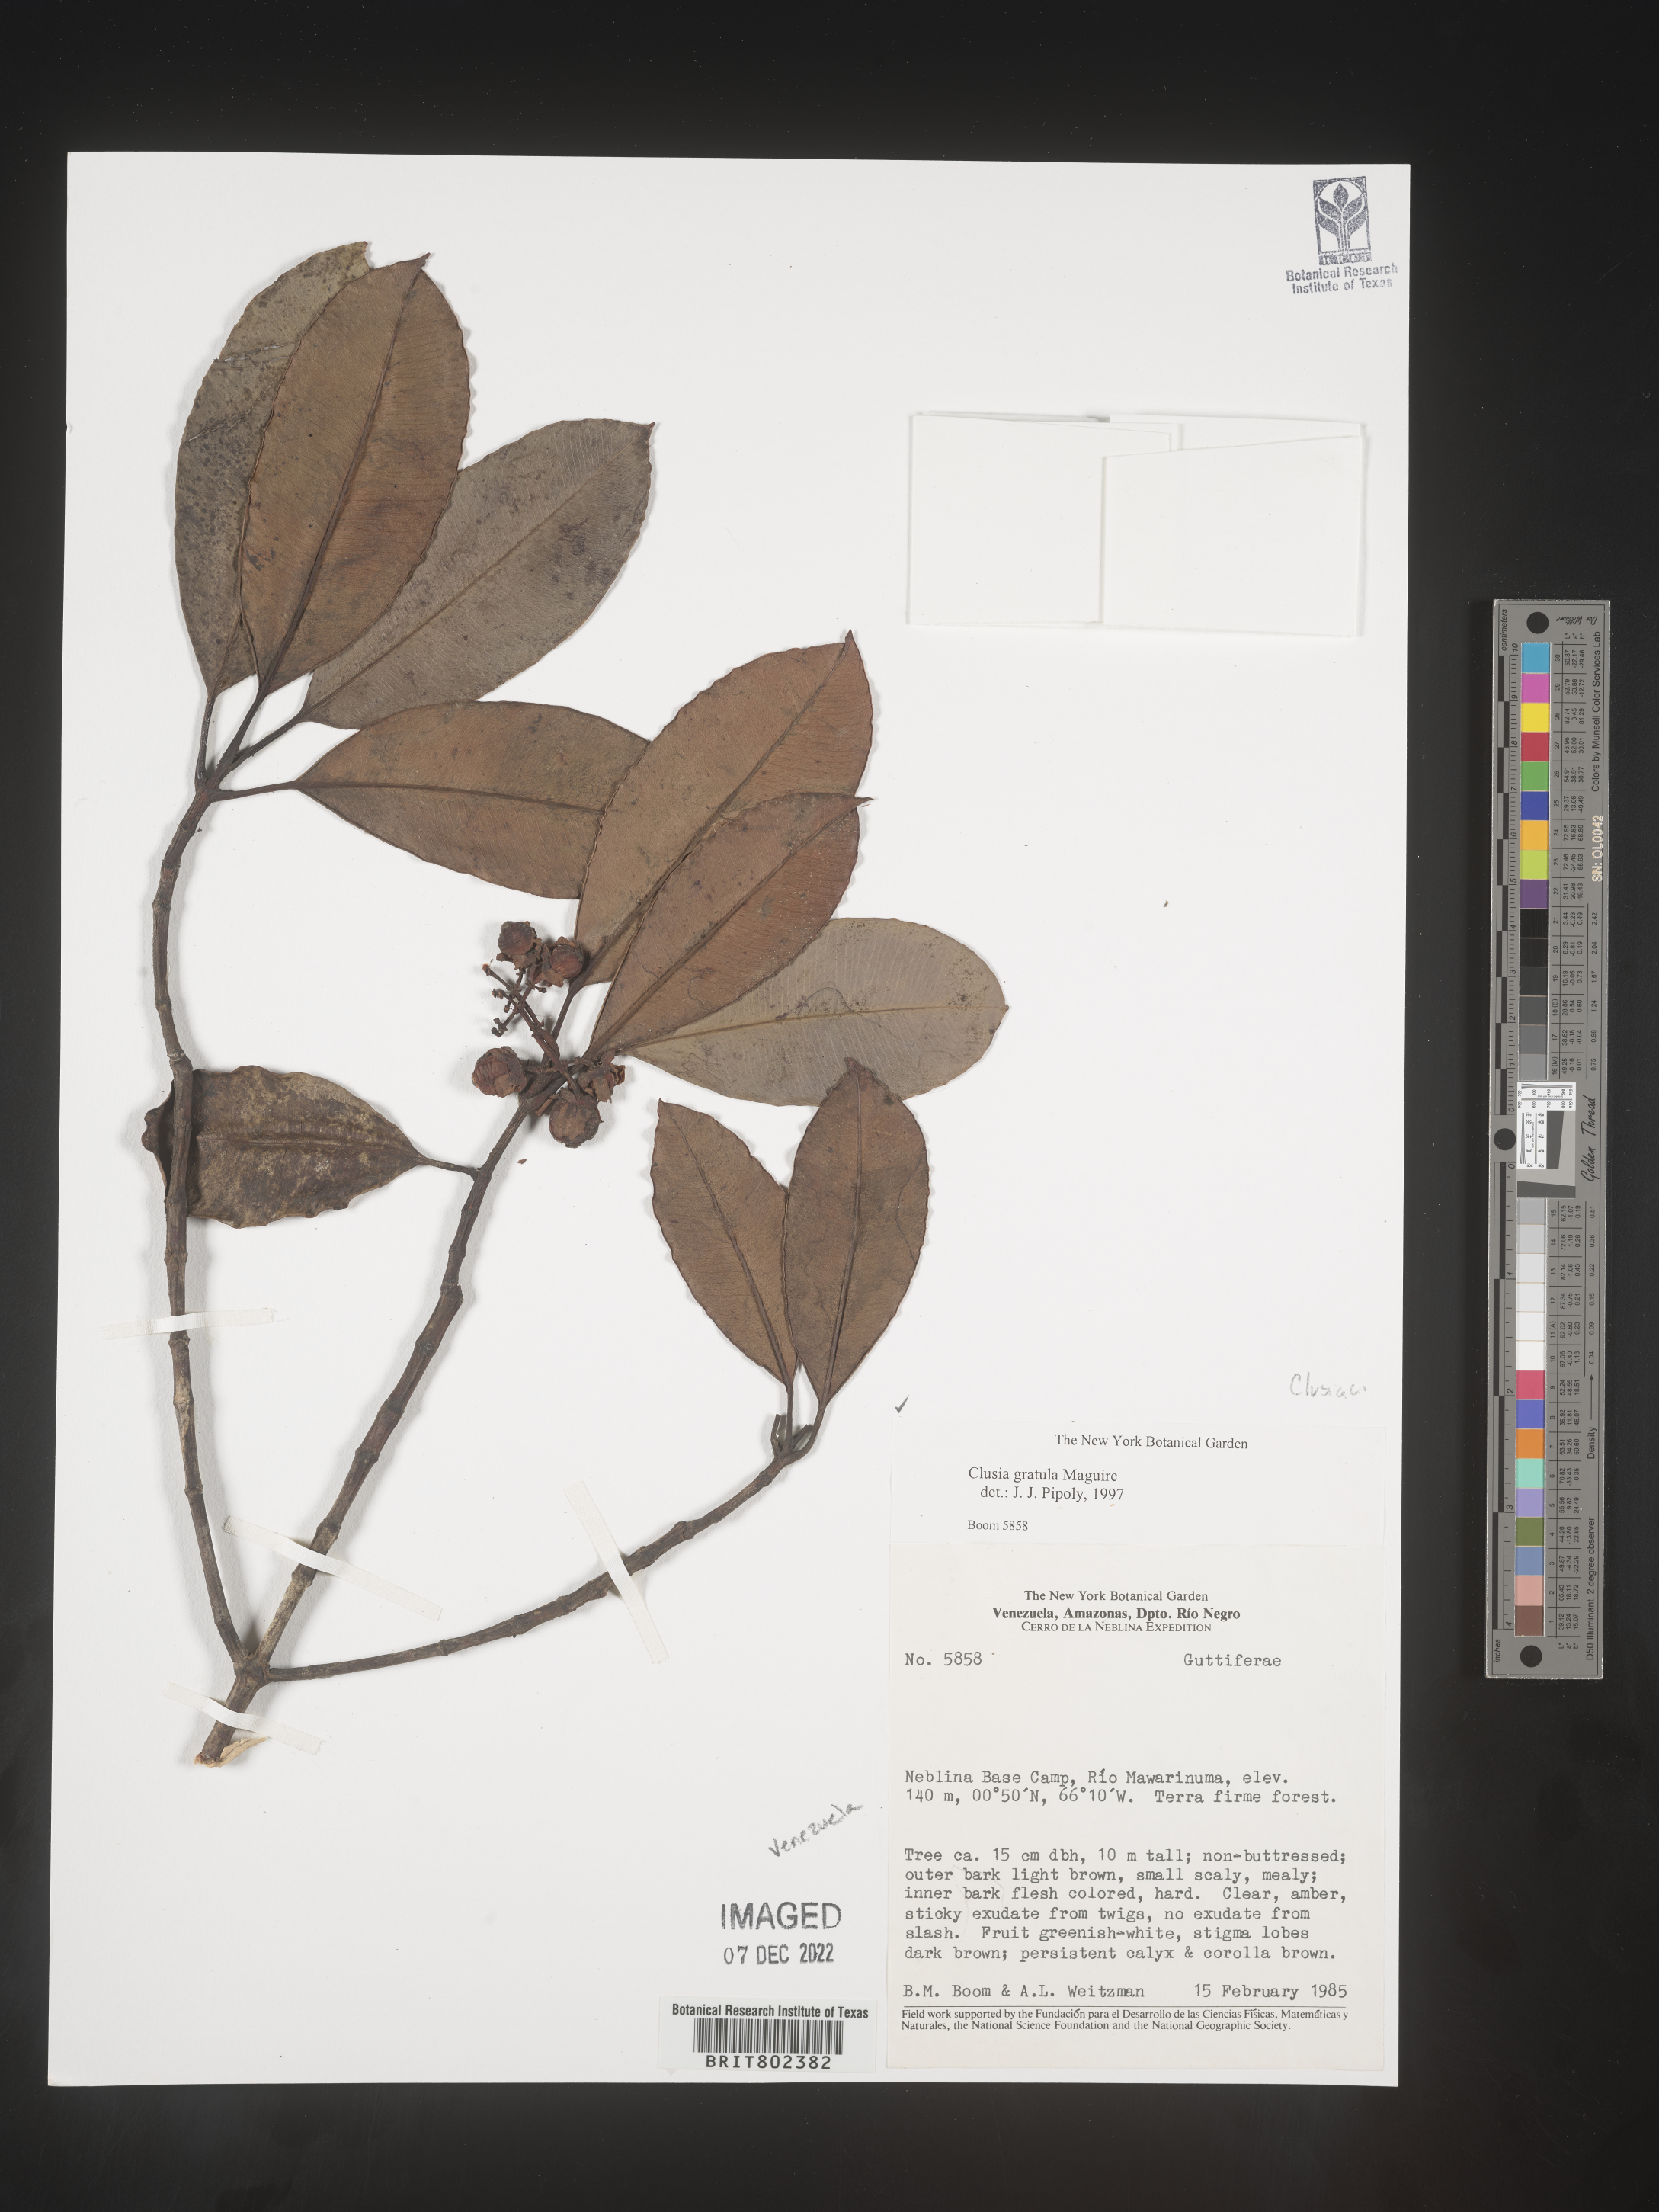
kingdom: Plantae
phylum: Tracheophyta
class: Magnoliopsida
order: Malpighiales
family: Clusiaceae
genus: Clusia
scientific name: Clusia
